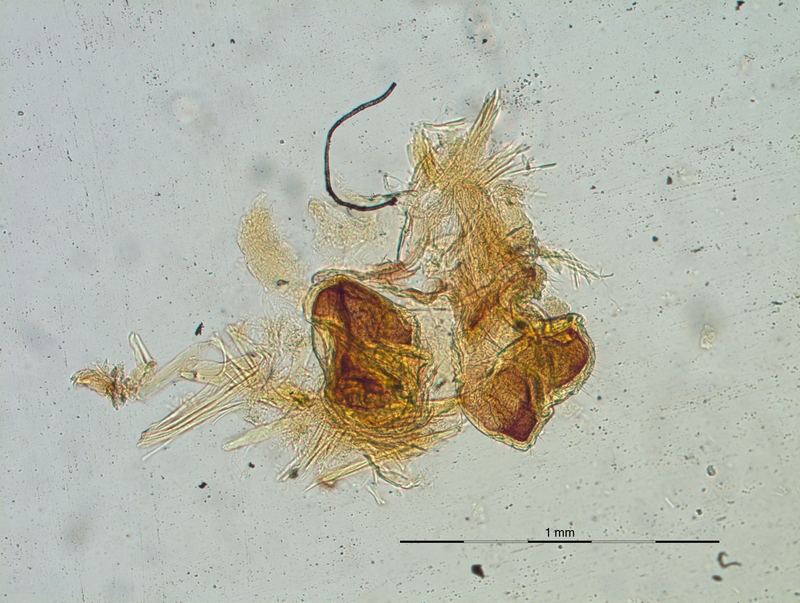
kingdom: Animalia
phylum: Arthropoda
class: Diplopoda
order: Chordeumatida
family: Craspedosomatidae
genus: Craspedosoma
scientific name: Craspedosoma alemannicum
